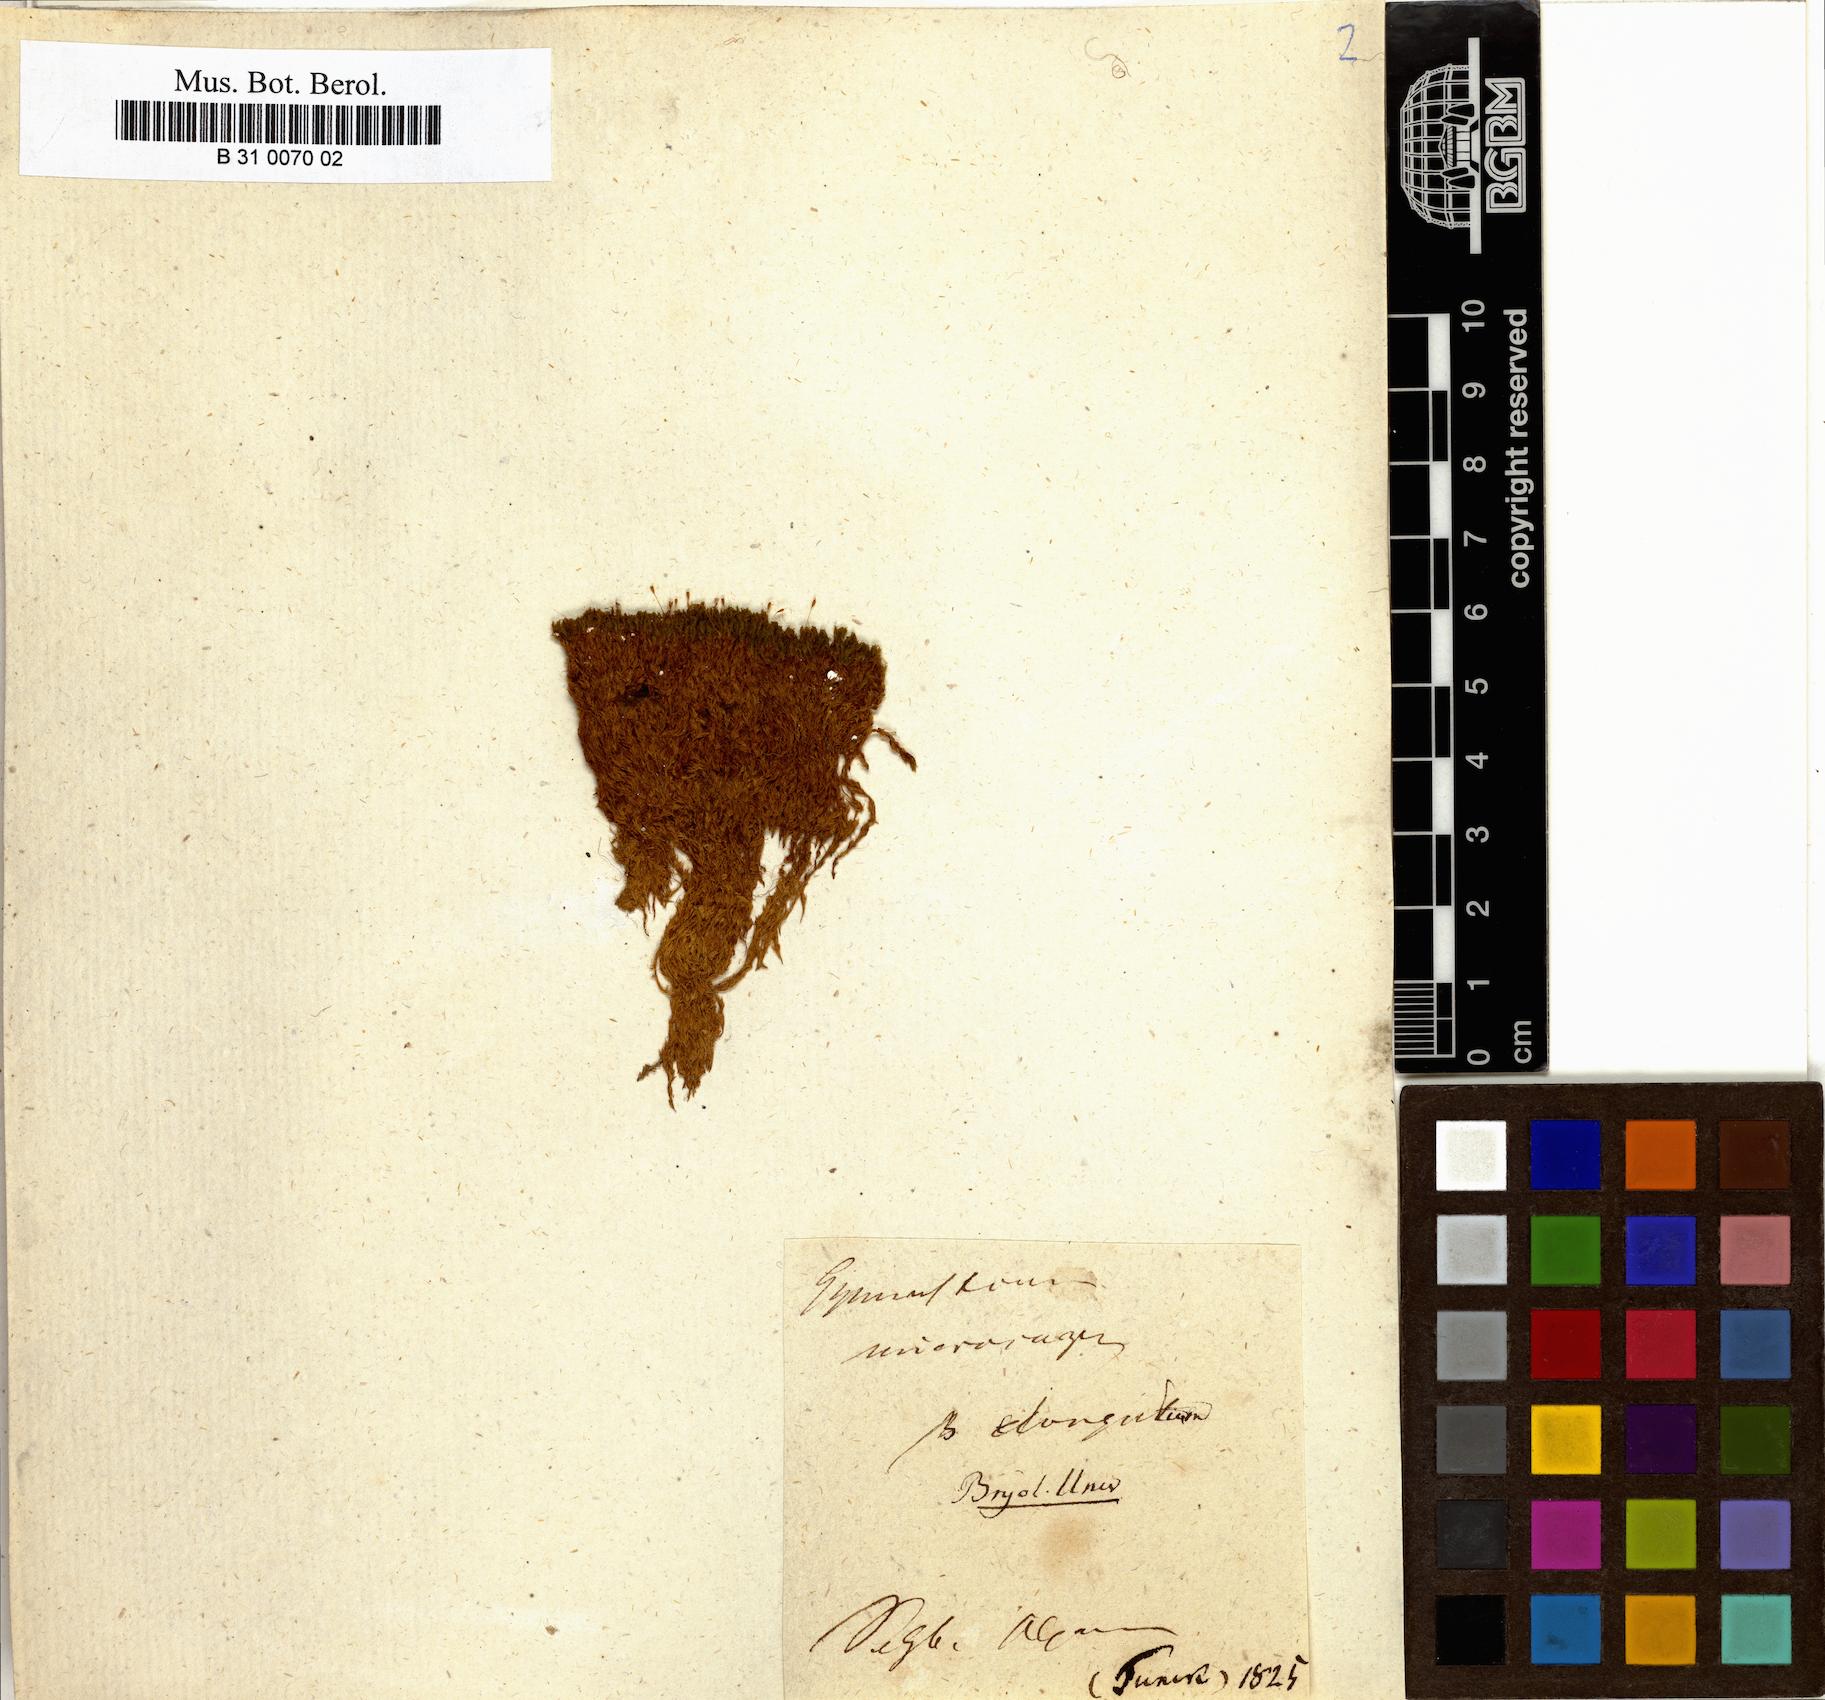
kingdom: Plantae
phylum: Bryophyta
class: Bryopsida
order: Pottiales
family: Pottiaceae
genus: Hymenostylium
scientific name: Hymenostylium recurvirostrum
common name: Hook-beak tufa-moss
